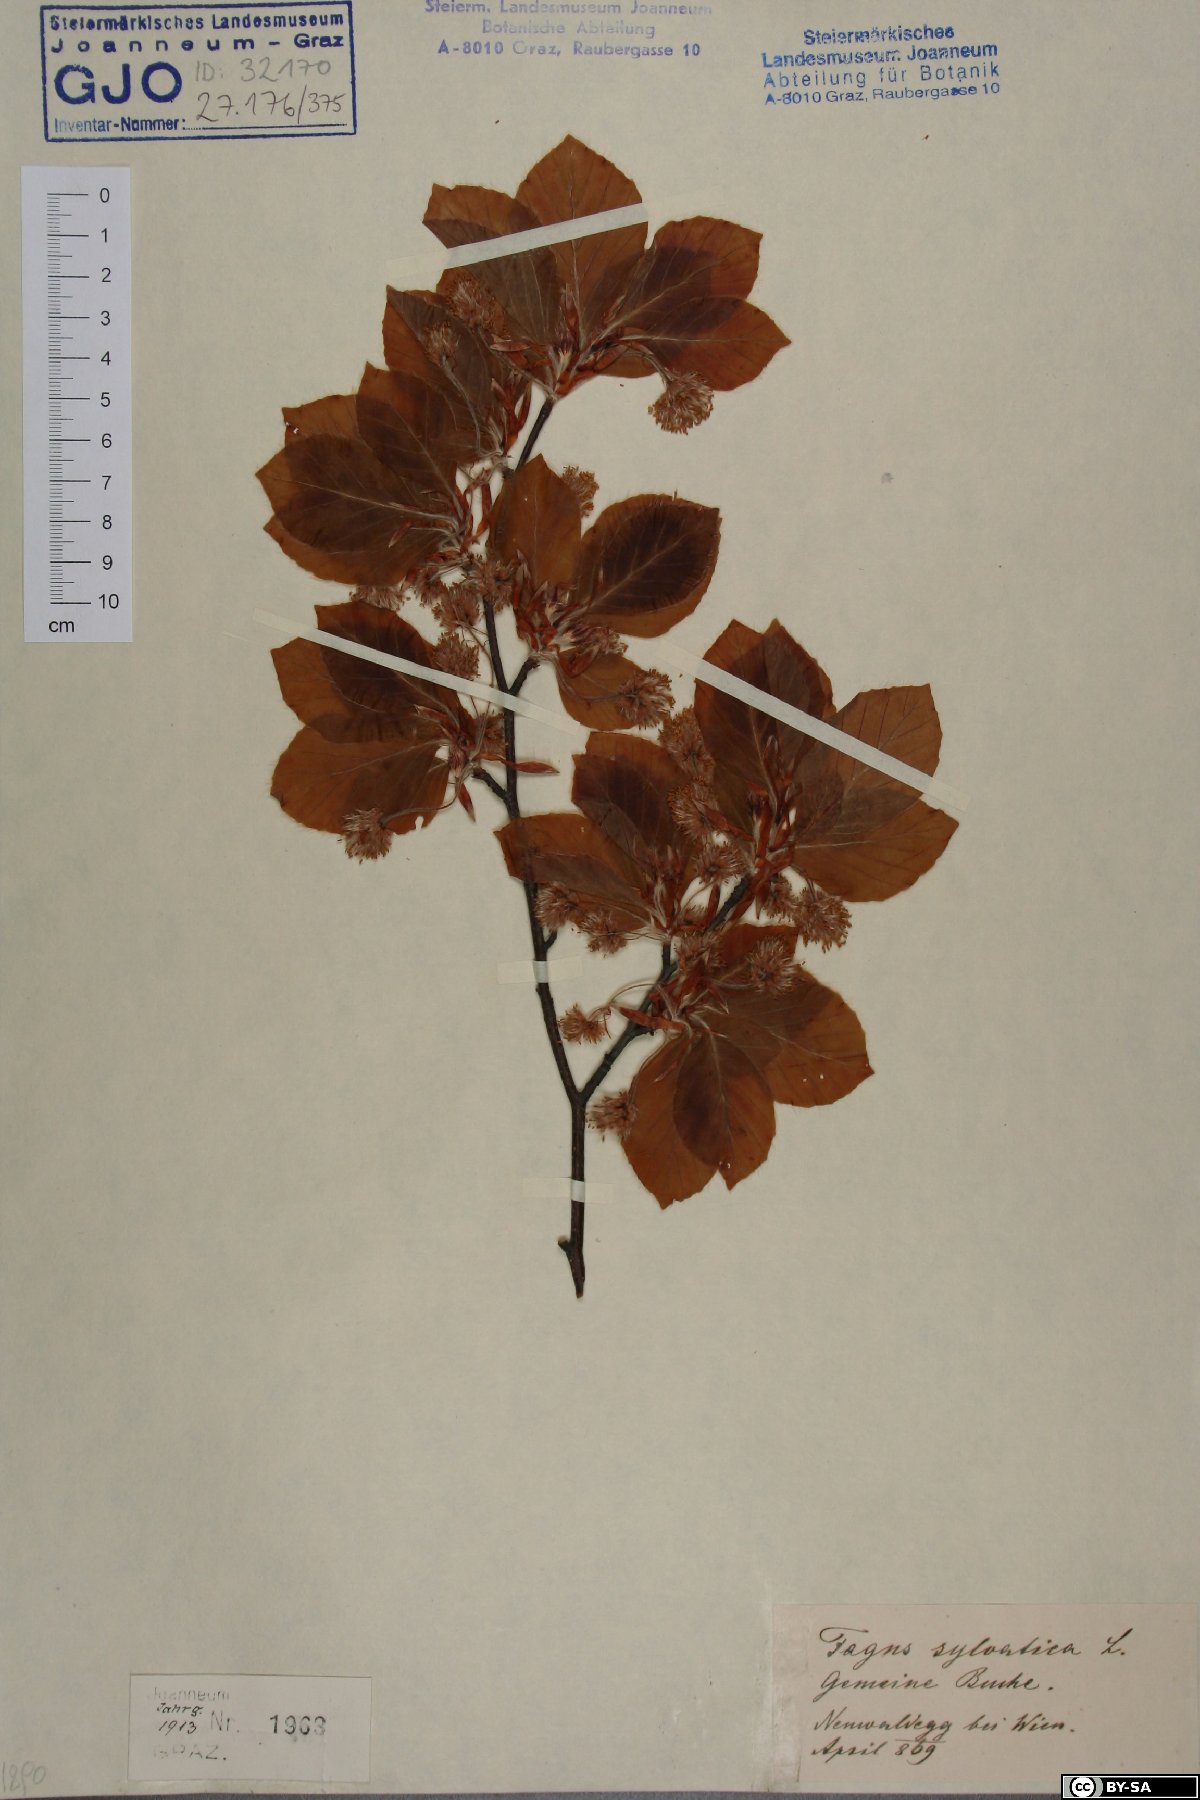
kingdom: Plantae
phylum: Tracheophyta
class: Magnoliopsida
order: Fagales
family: Fagaceae
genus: Fagus
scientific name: Fagus sylvatica
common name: Beech
